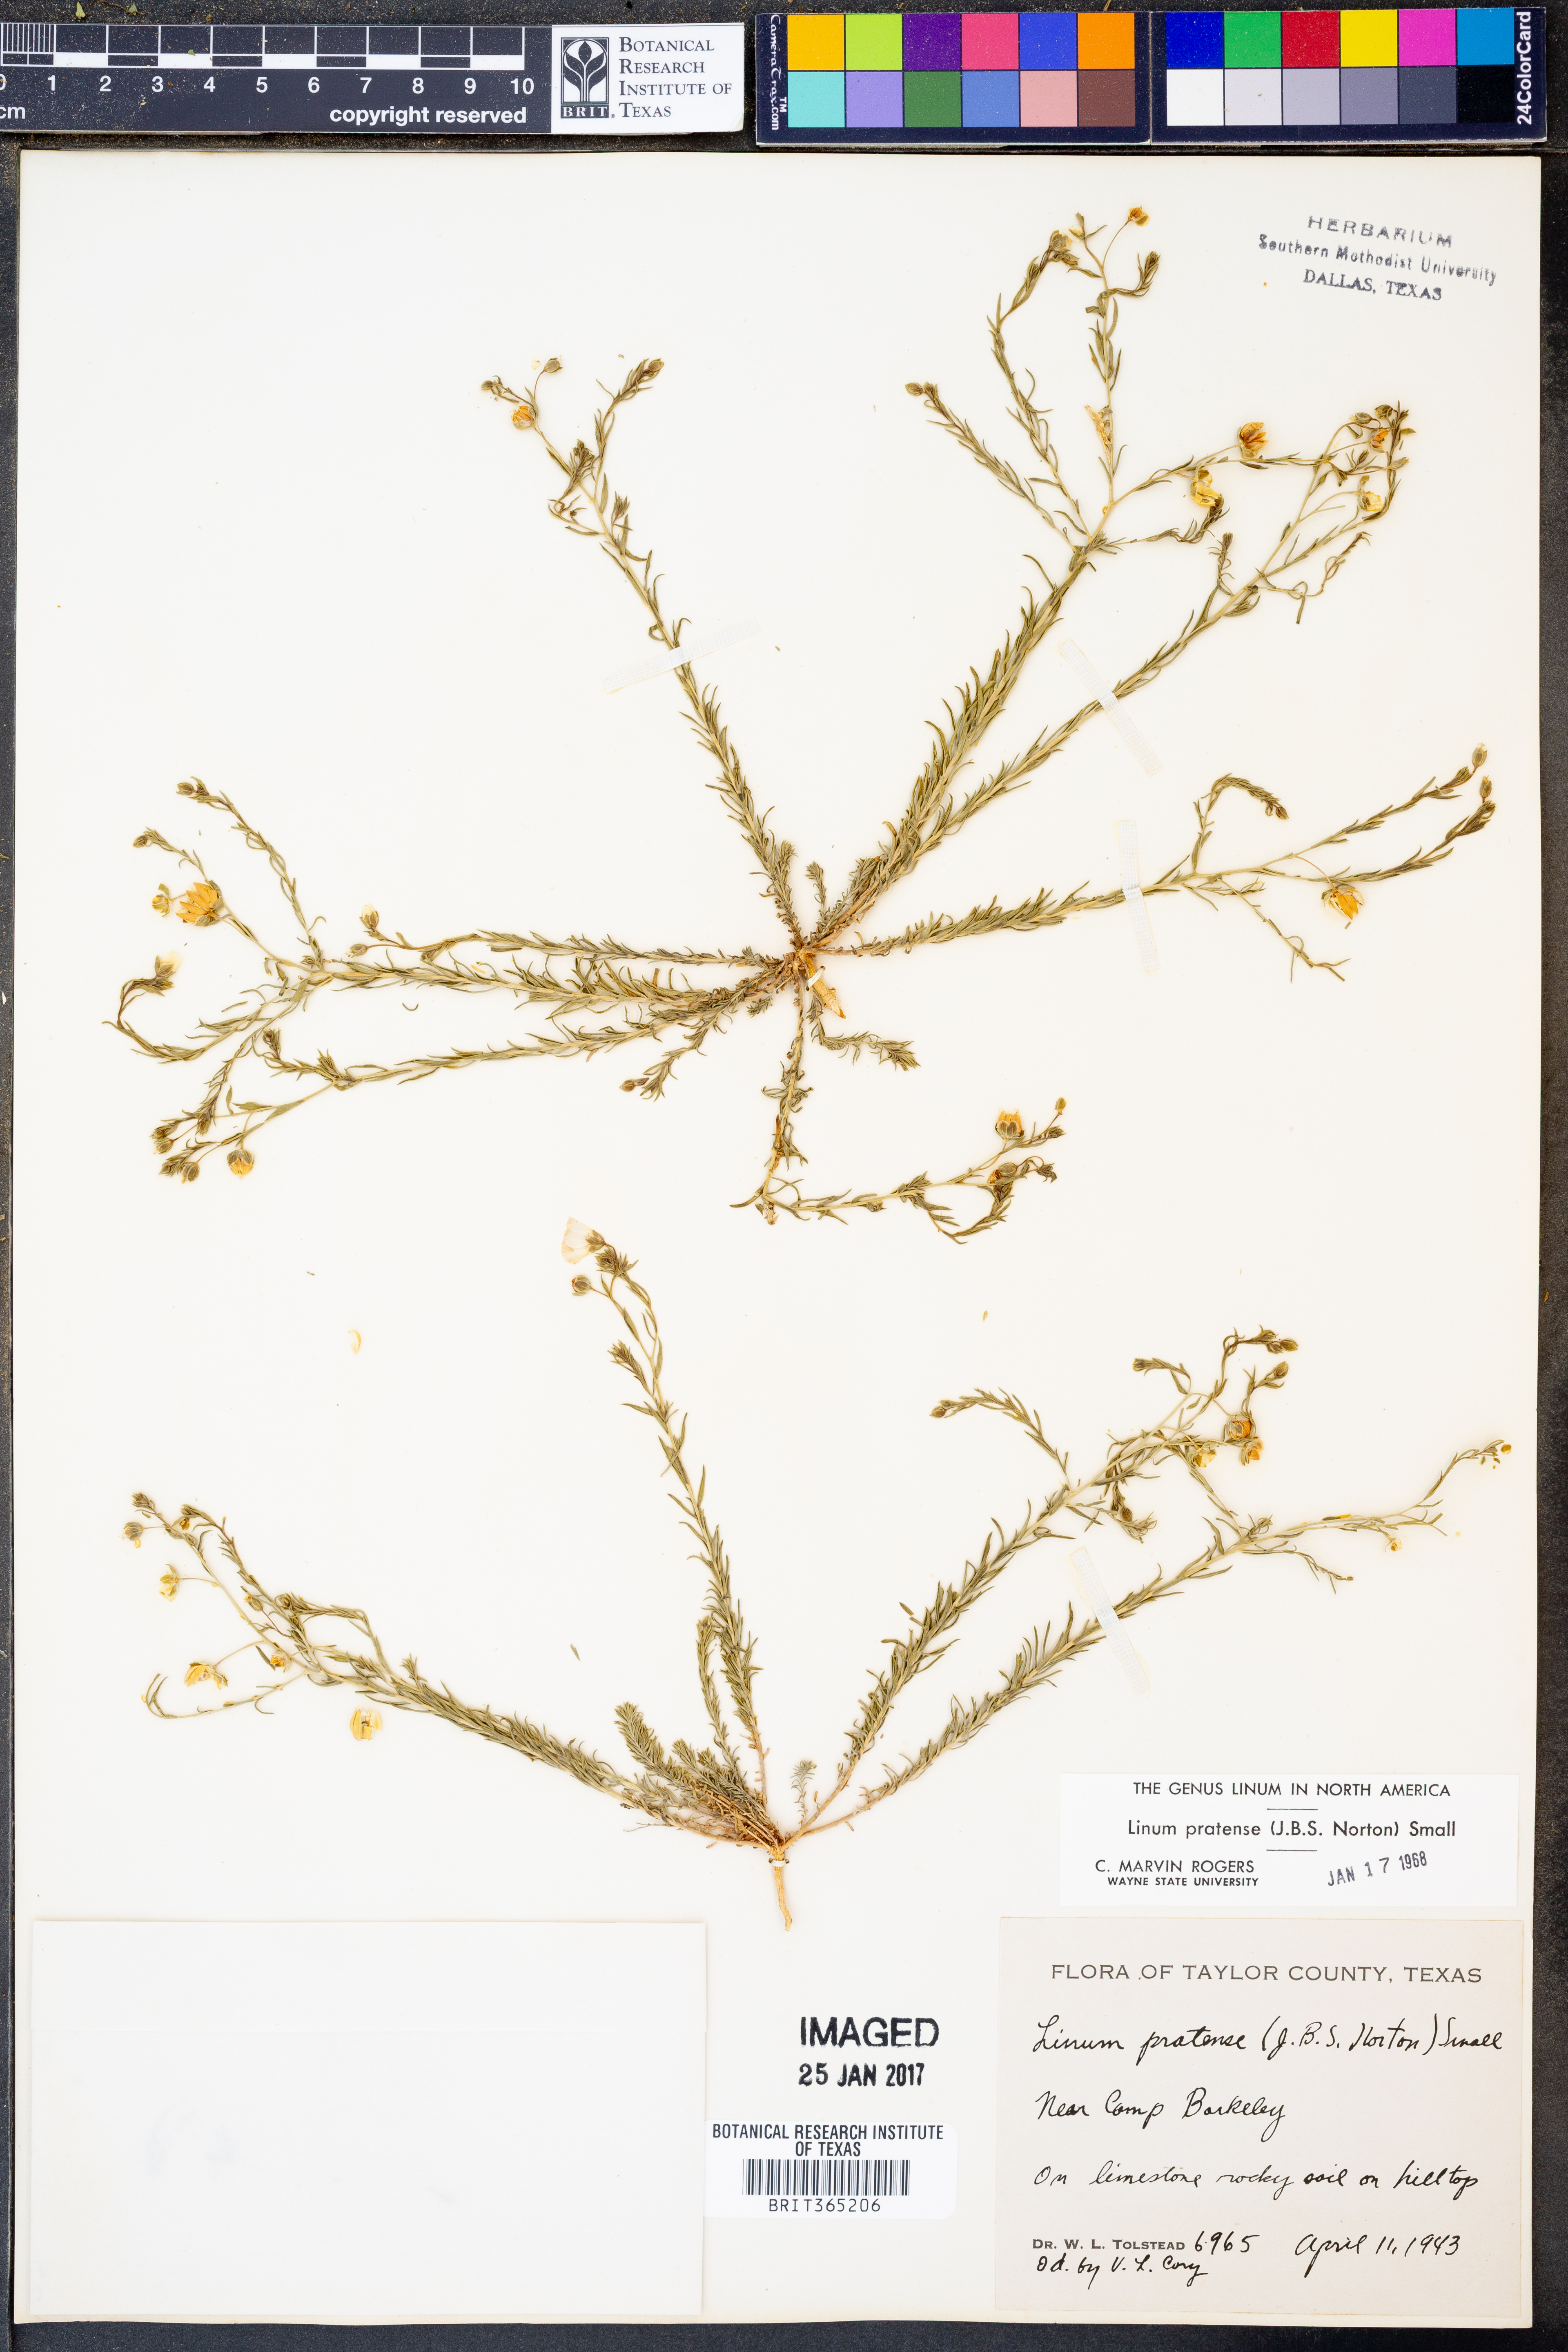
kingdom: Plantae
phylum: Tracheophyta
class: Magnoliopsida
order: Malpighiales
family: Linaceae
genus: Linum
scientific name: Linum pratense
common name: Norton's flax
